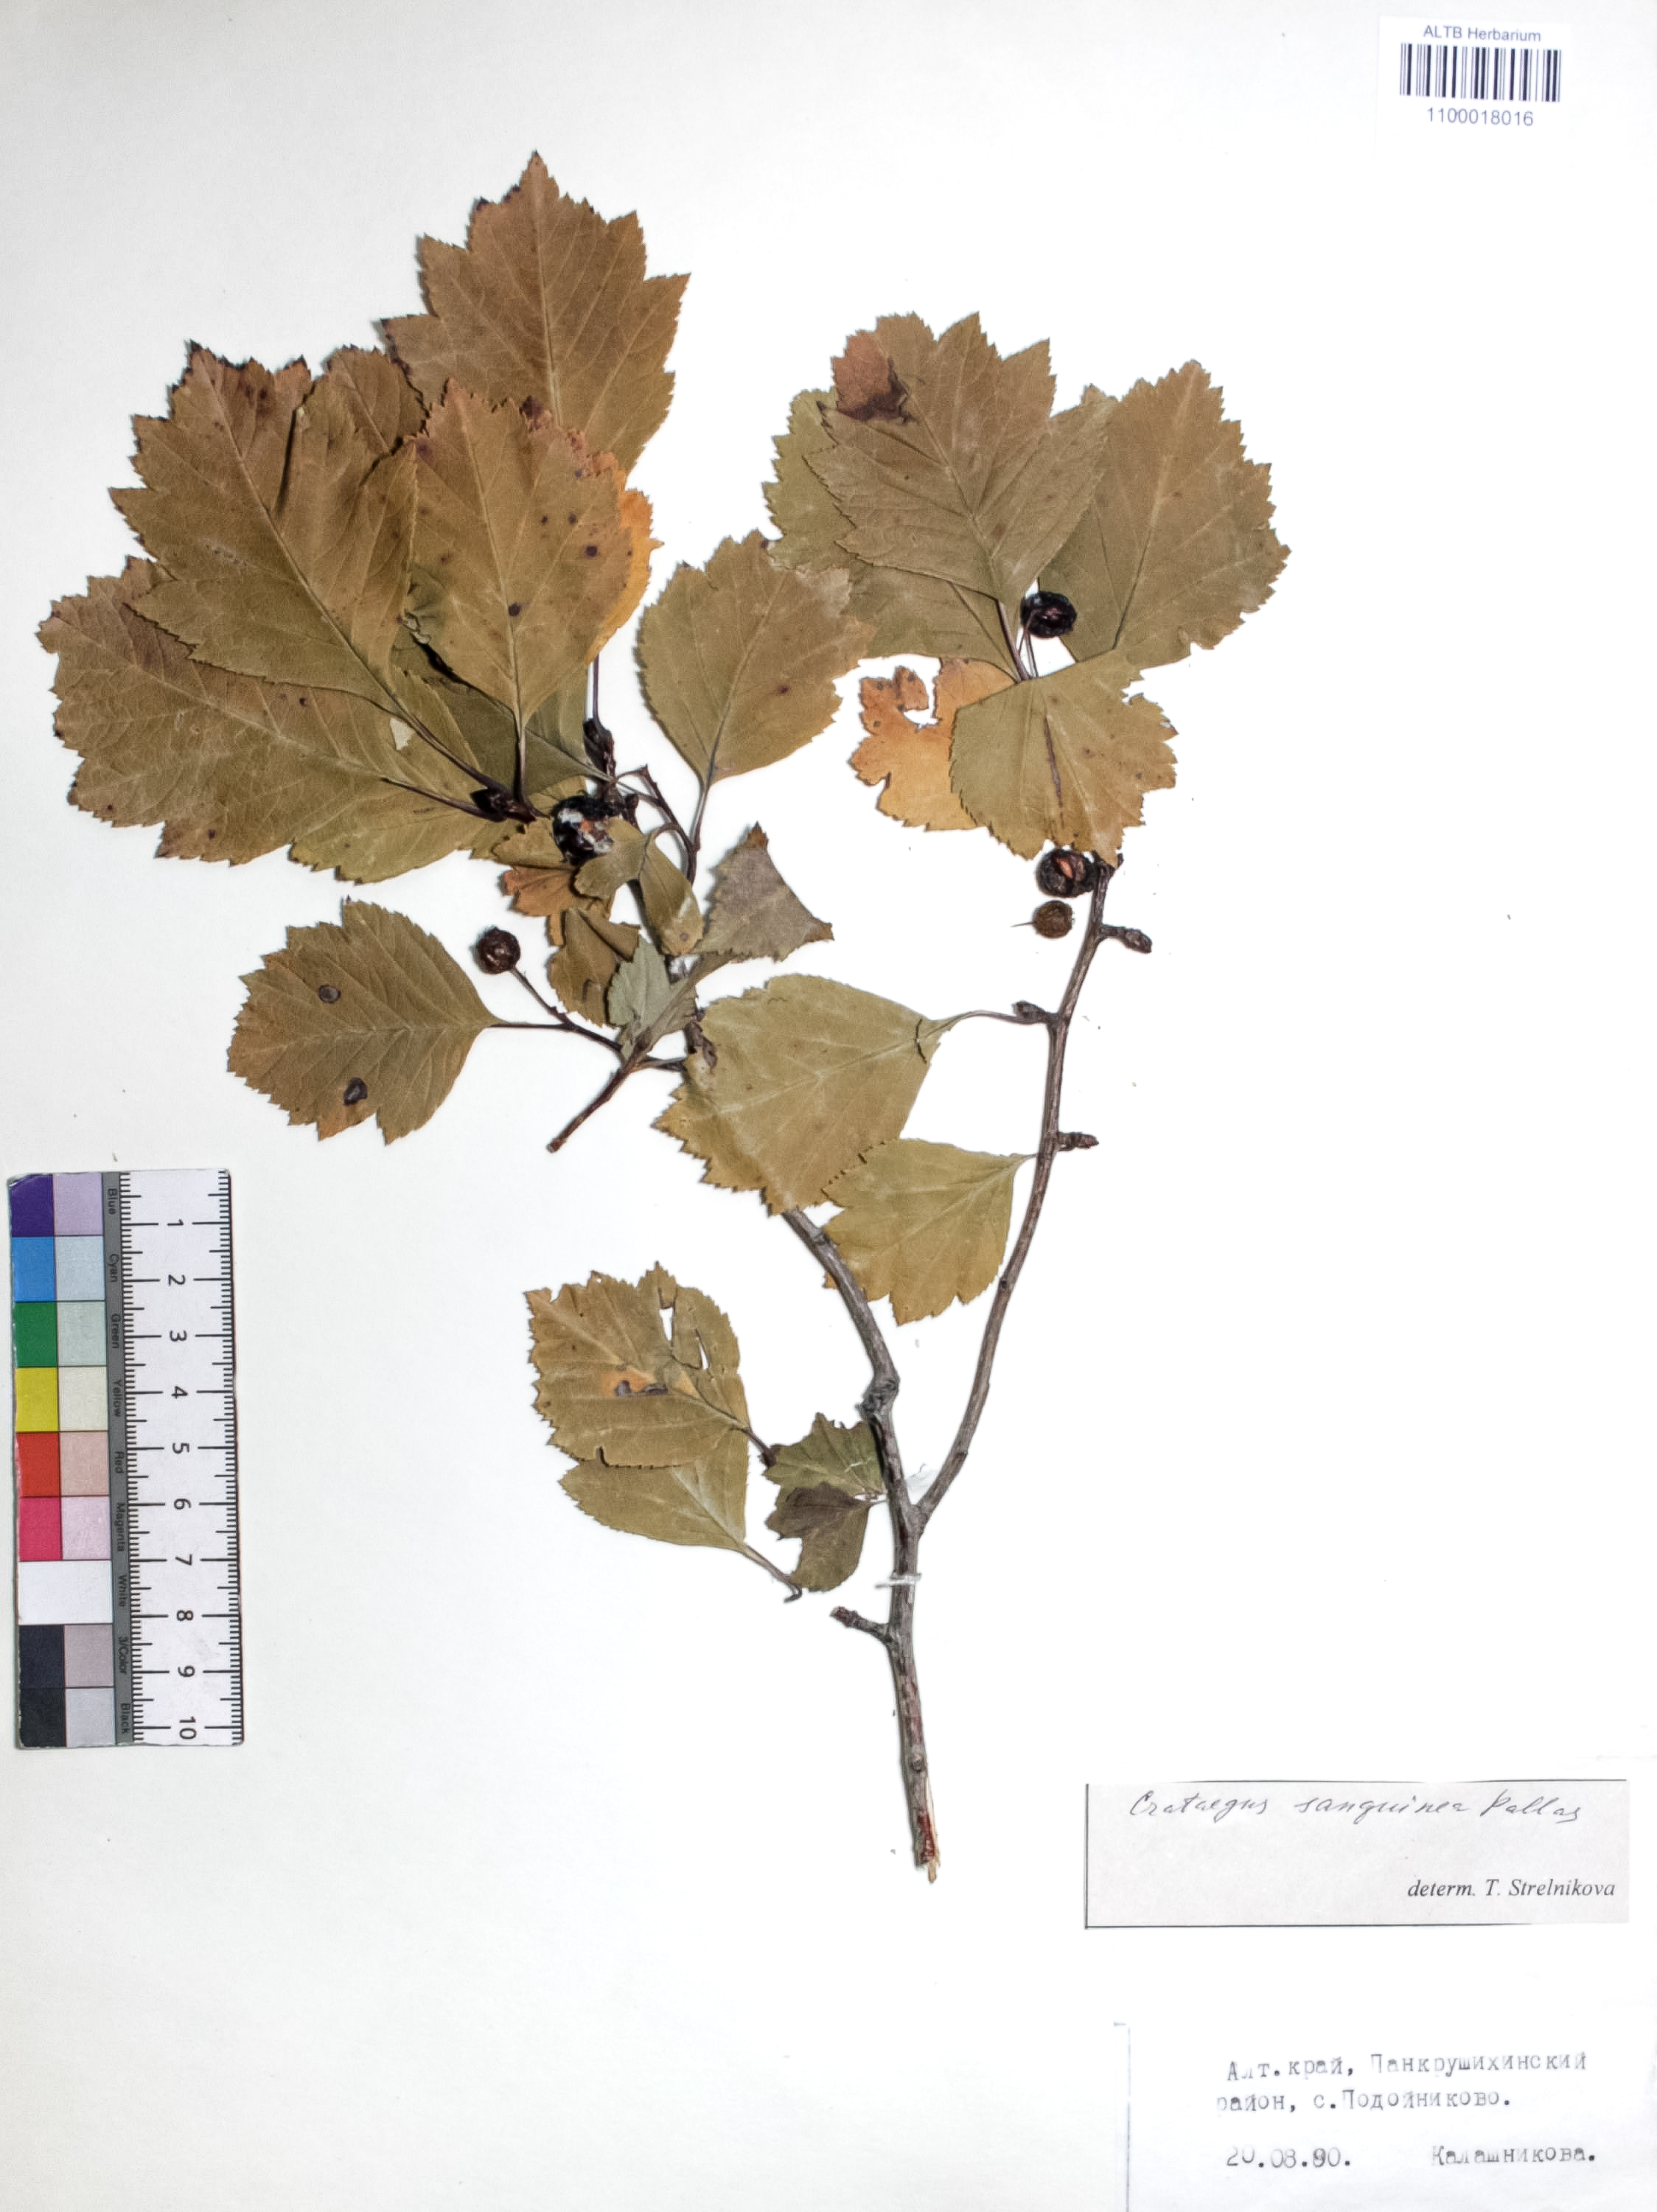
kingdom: Plantae
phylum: Tracheophyta
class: Magnoliopsida
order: Rosales
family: Rosaceae
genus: Crataegus
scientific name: Crataegus sanguinea
